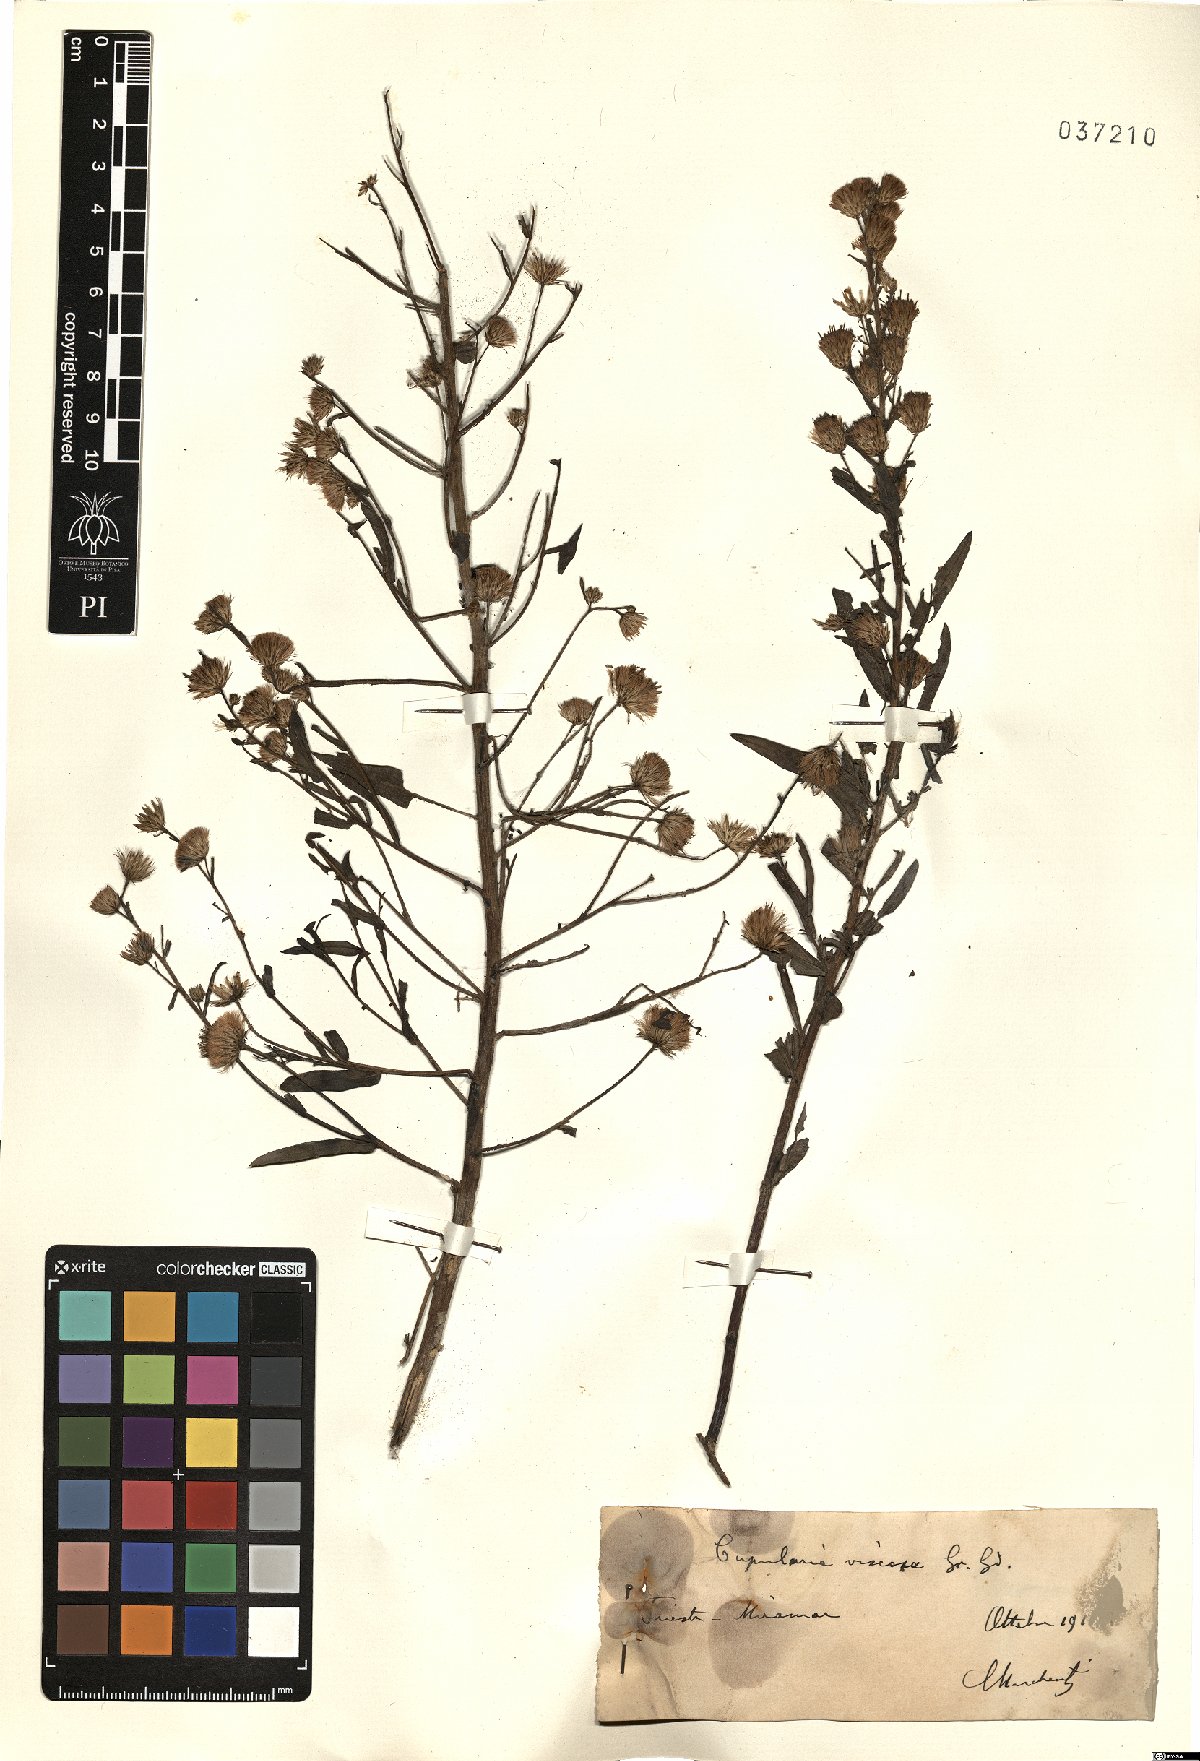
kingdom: Plantae
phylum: Tracheophyta
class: Magnoliopsida
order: Asterales
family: Asteraceae
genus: Dittrichia
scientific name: Dittrichia viscosa
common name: Woody fleabane
